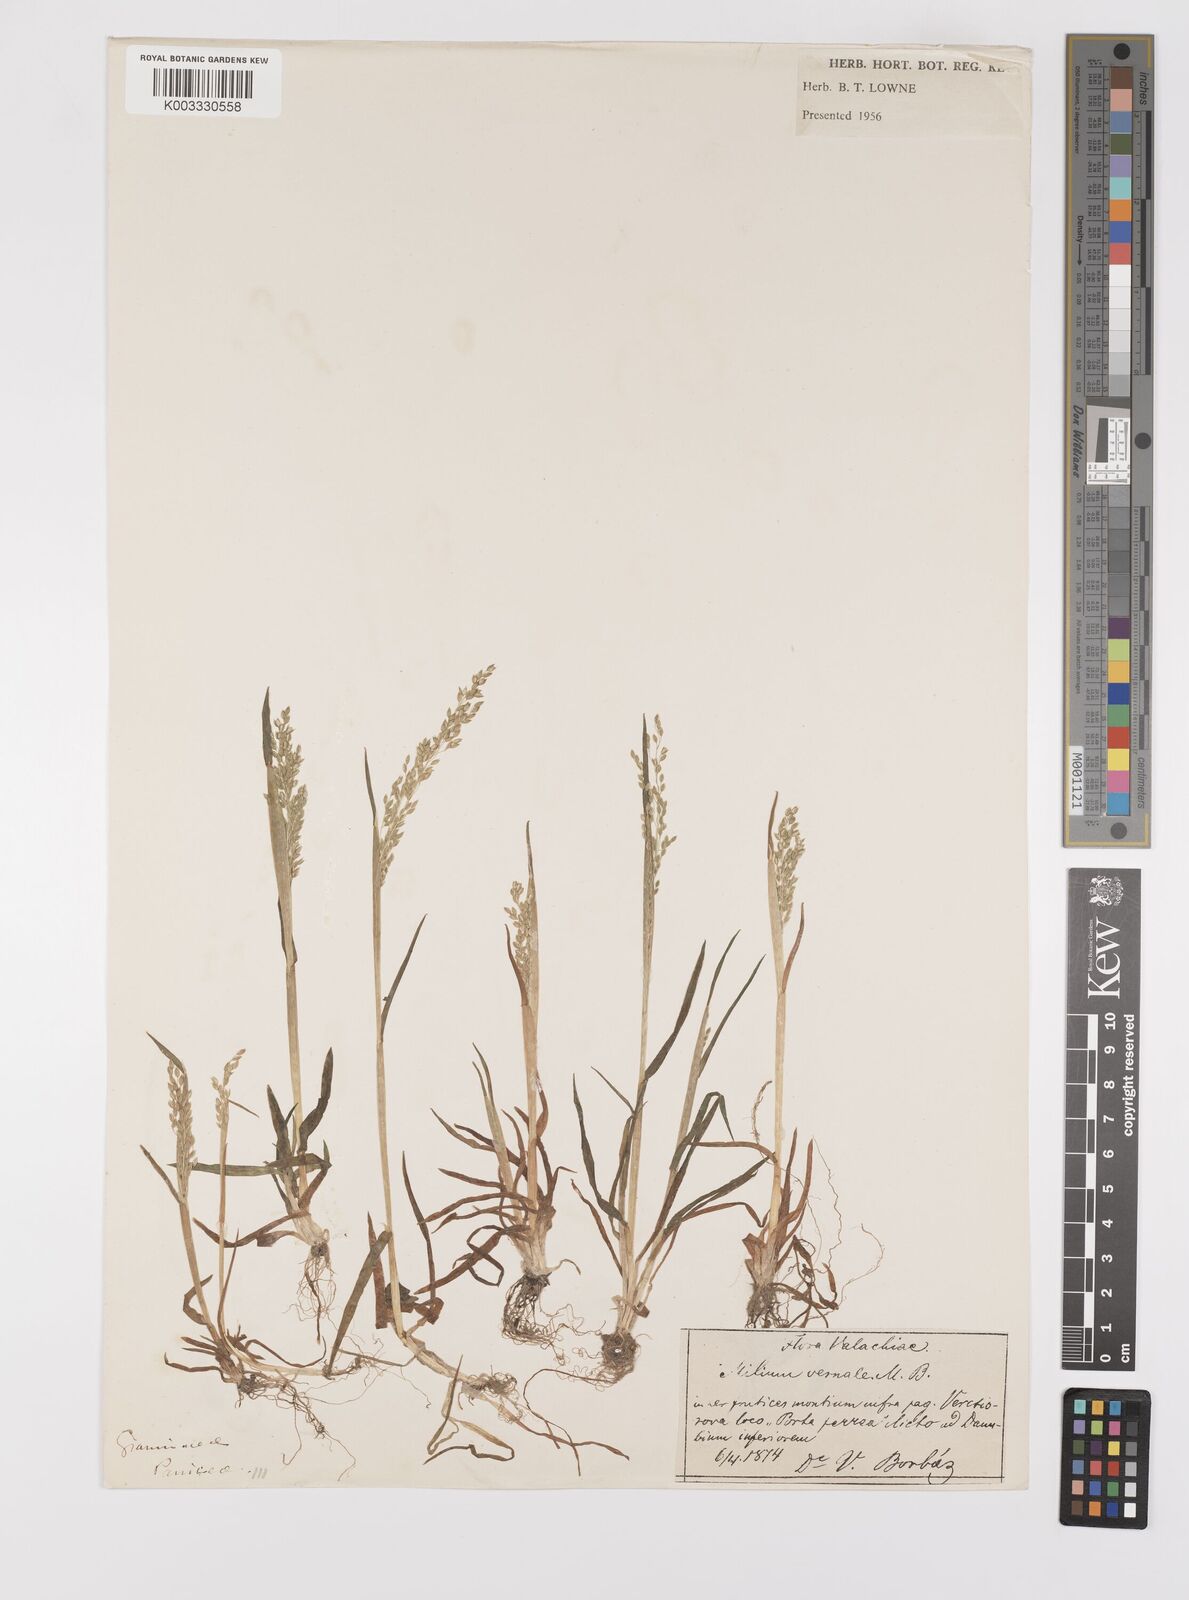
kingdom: Plantae
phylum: Tracheophyta
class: Liliopsida
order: Poales
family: Poaceae
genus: Milium
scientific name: Milium vernale
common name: Early millet
